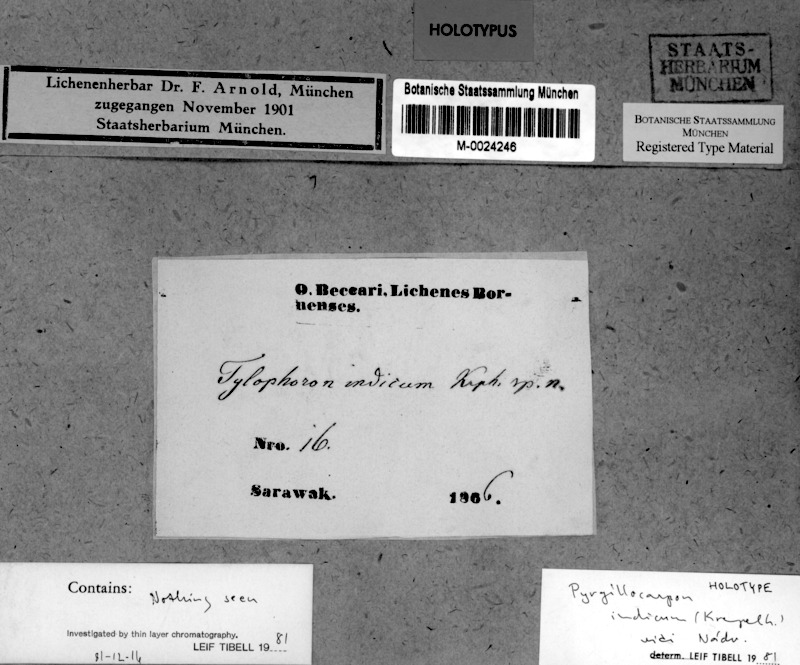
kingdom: Fungi
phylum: Ascomycota
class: Eurotiomycetes
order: Pyrenulales
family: Pyrenulaceae
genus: Pyrgillus
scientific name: Pyrgillus indicus
